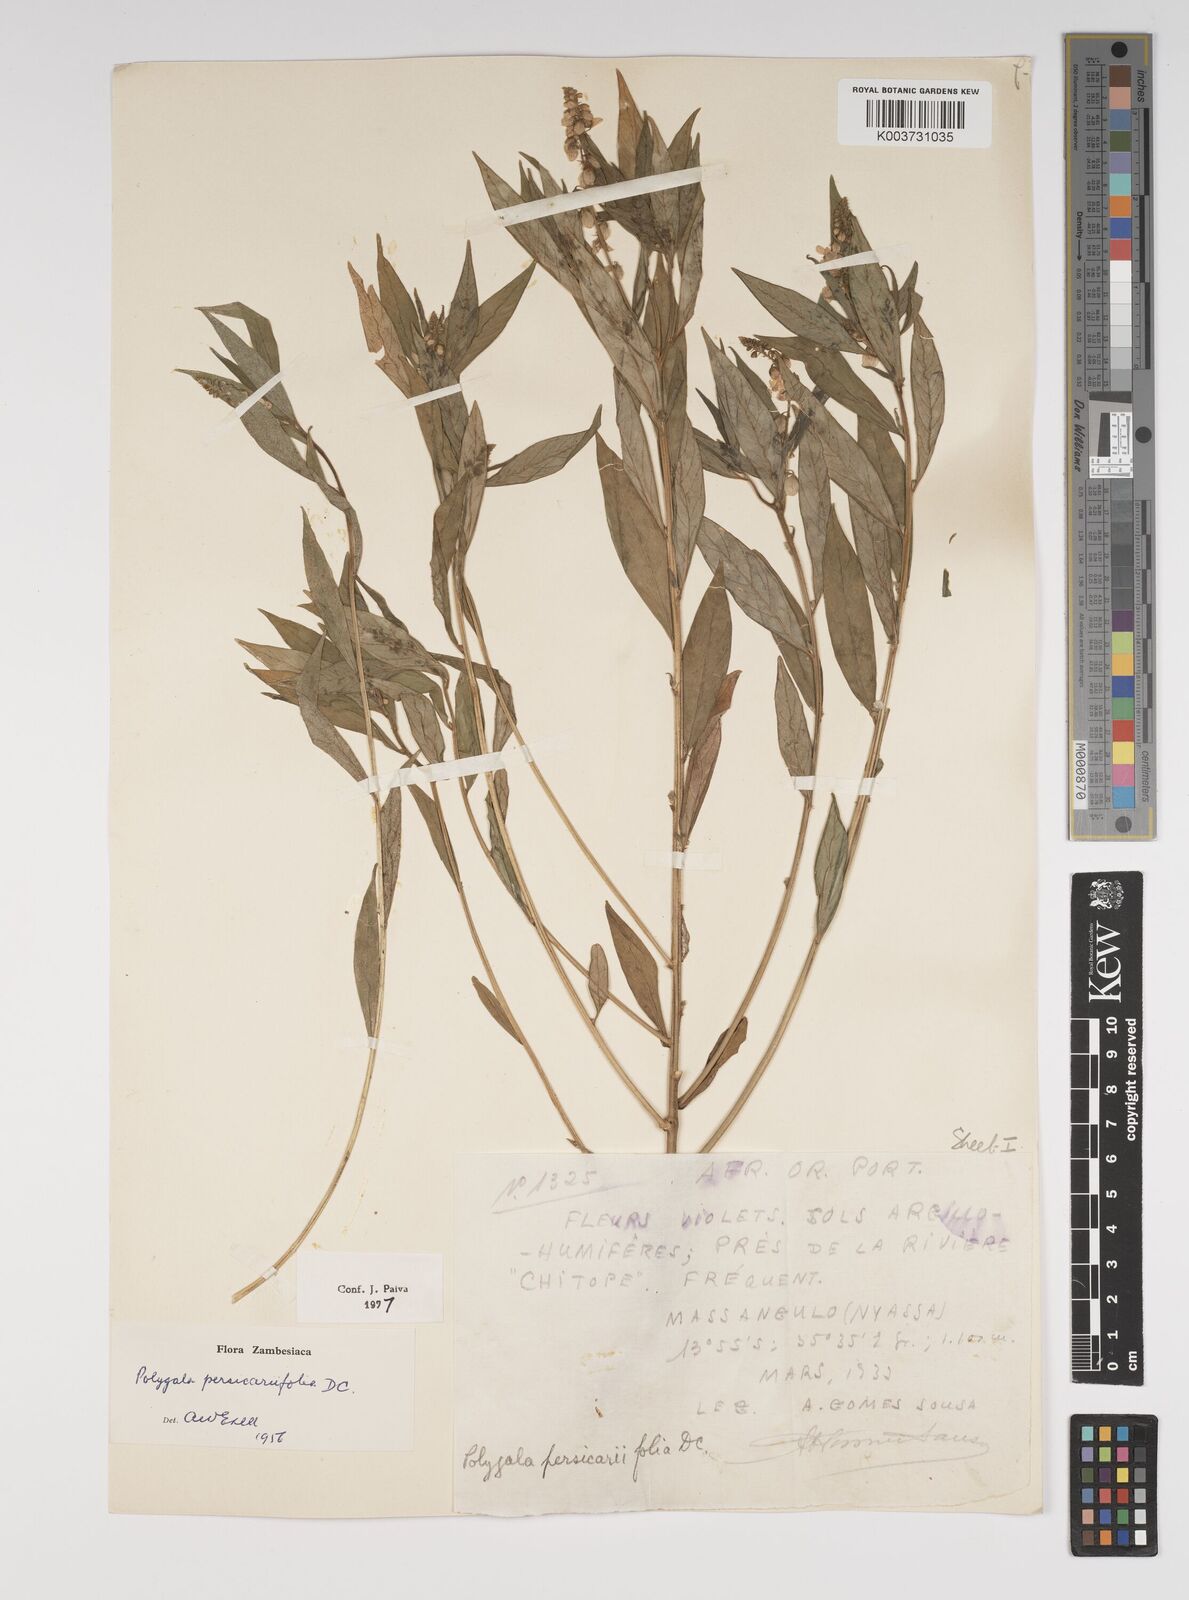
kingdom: Plantae
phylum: Tracheophyta
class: Magnoliopsida
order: Fabales
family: Polygalaceae
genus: Polygala
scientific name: Polygala persicariifolia
